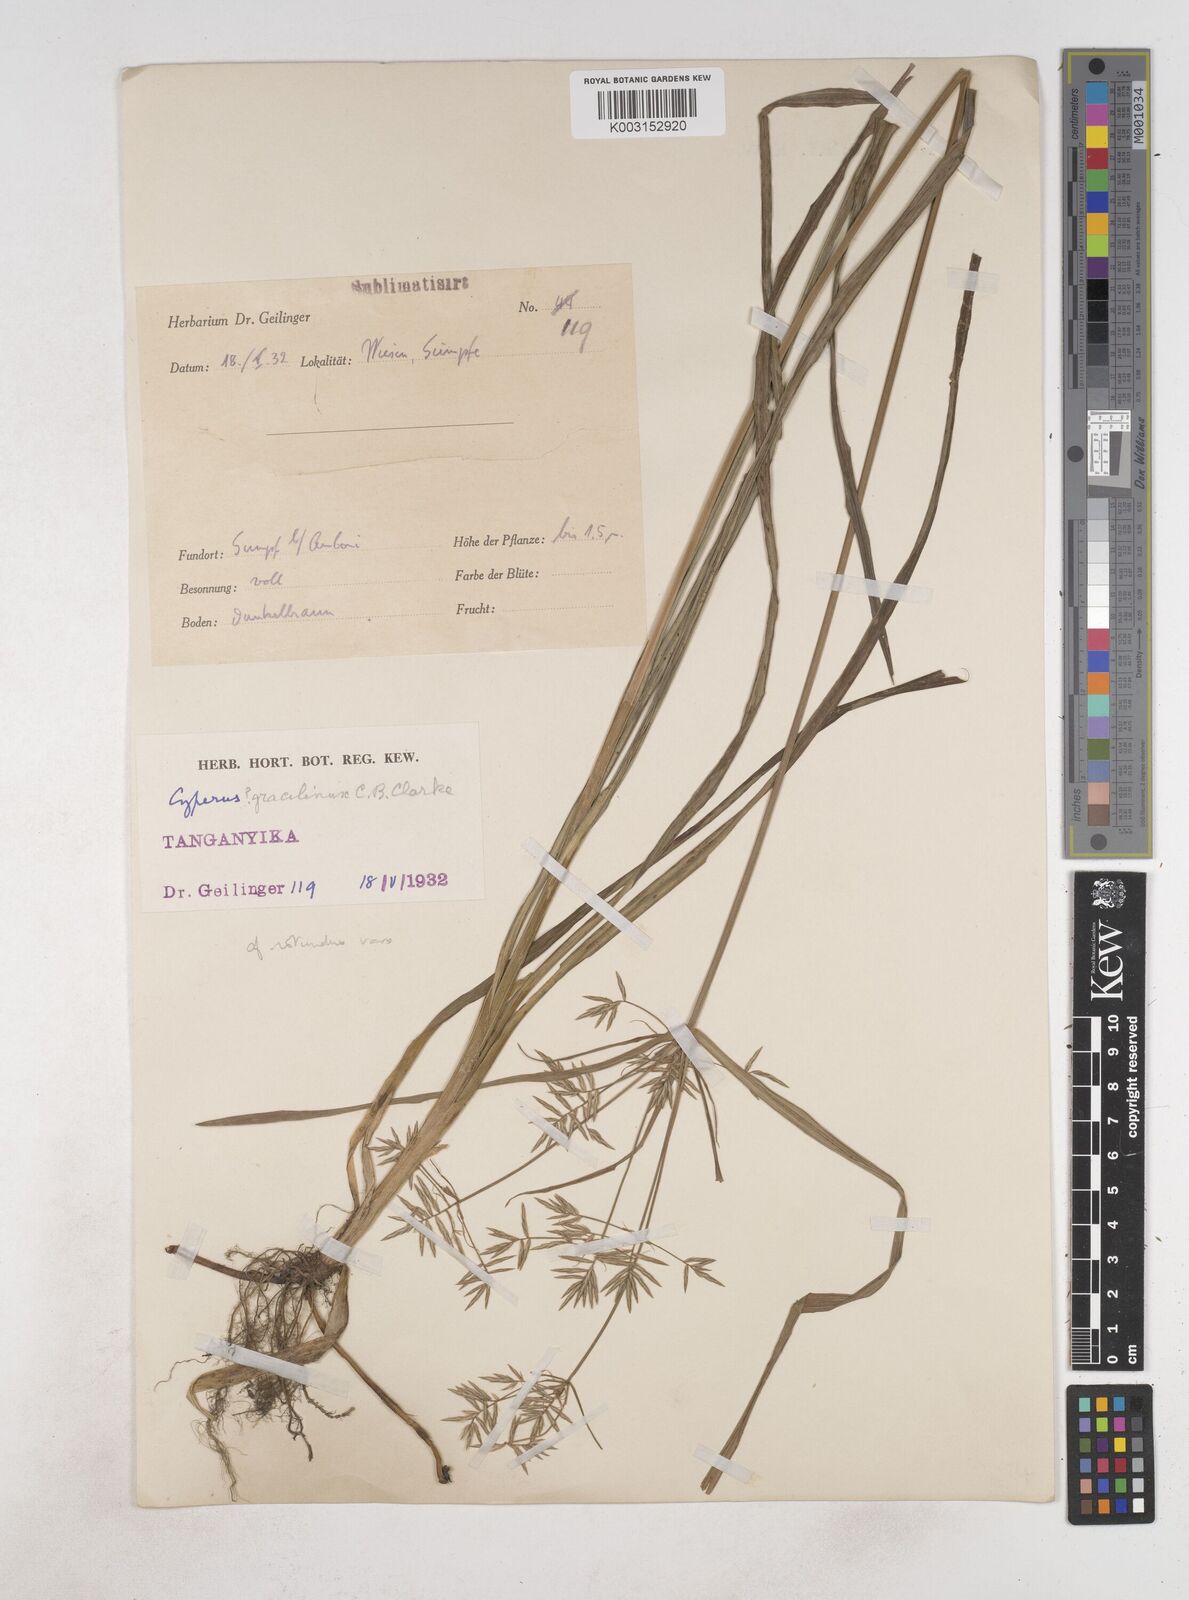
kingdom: Plantae
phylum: Tracheophyta
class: Liliopsida
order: Poales
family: Cyperaceae
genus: Cyperus
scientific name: Cyperus dilatatus
